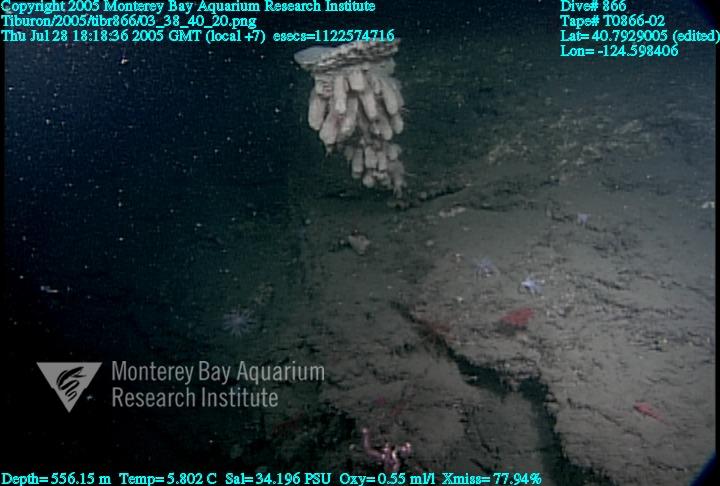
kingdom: Animalia
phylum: Porifera
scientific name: Porifera
